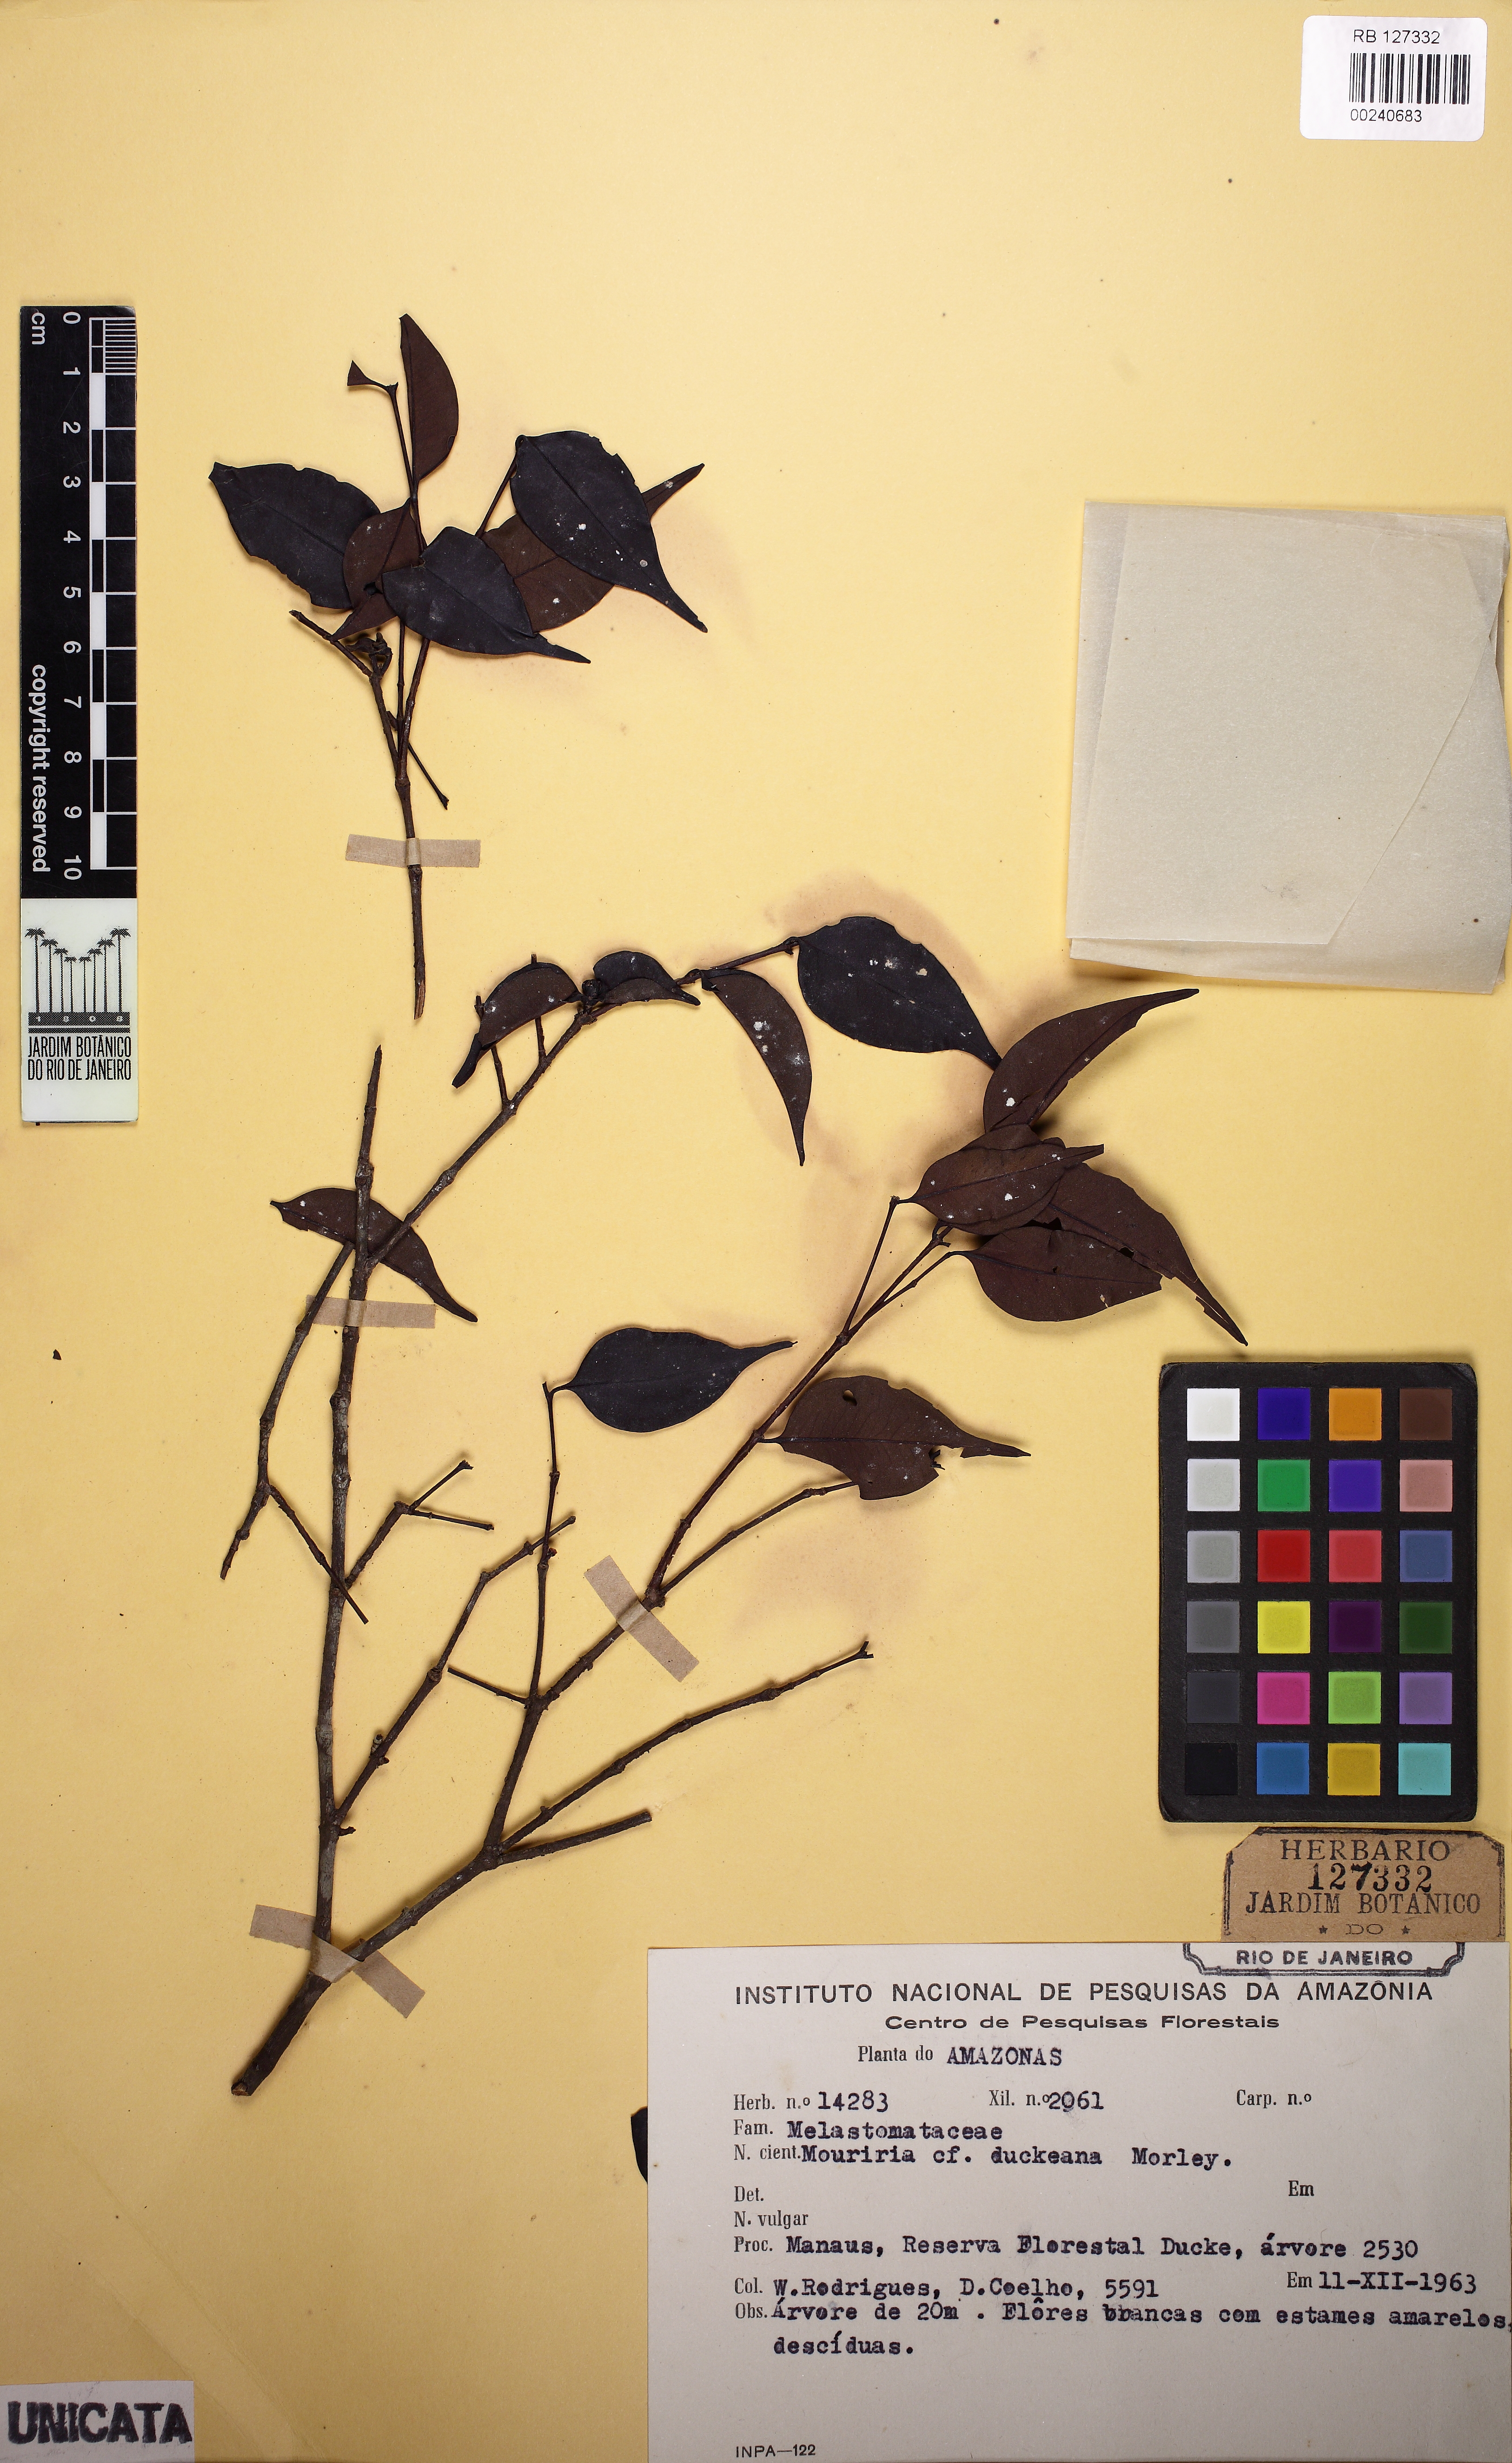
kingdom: Plantae
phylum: Tracheophyta
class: Magnoliopsida
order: Myrtales
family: Melastomataceae
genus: Mouriri
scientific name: Mouriri angulicosta
